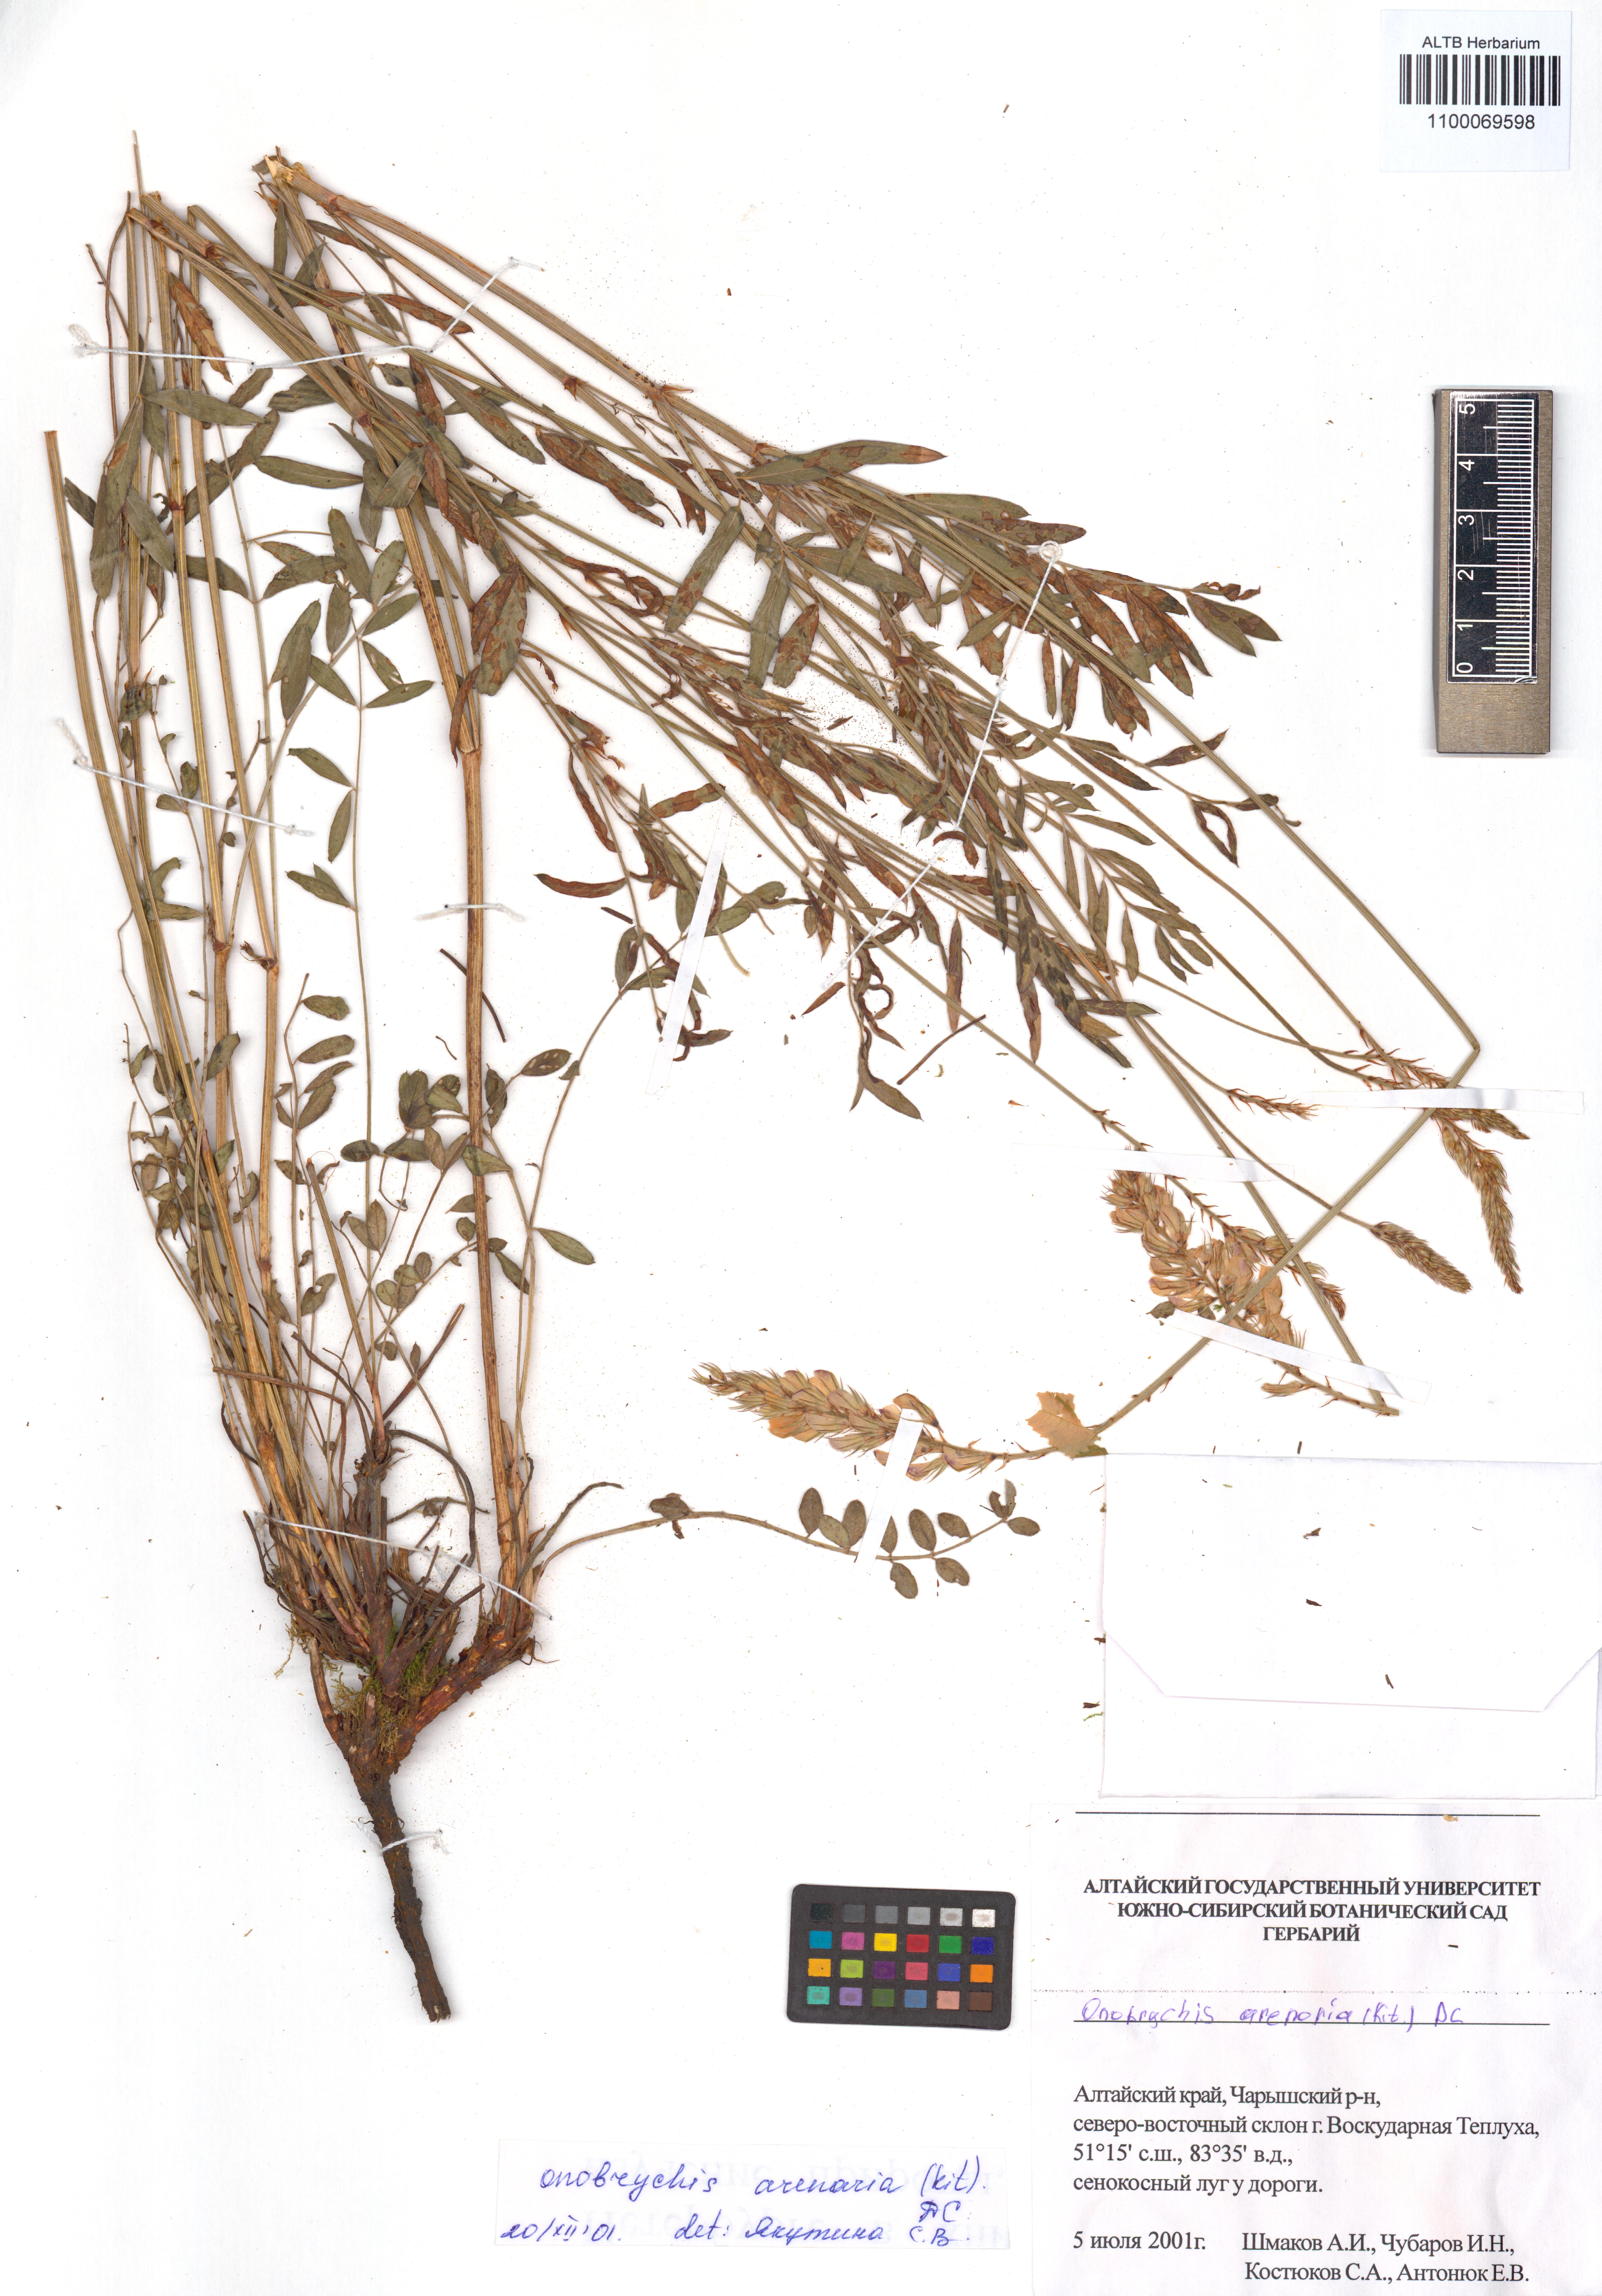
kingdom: Plantae
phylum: Tracheophyta
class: Magnoliopsida
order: Fabales
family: Fabaceae
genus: Onobrychis
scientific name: Onobrychis arenaria
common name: Sand esparcet
